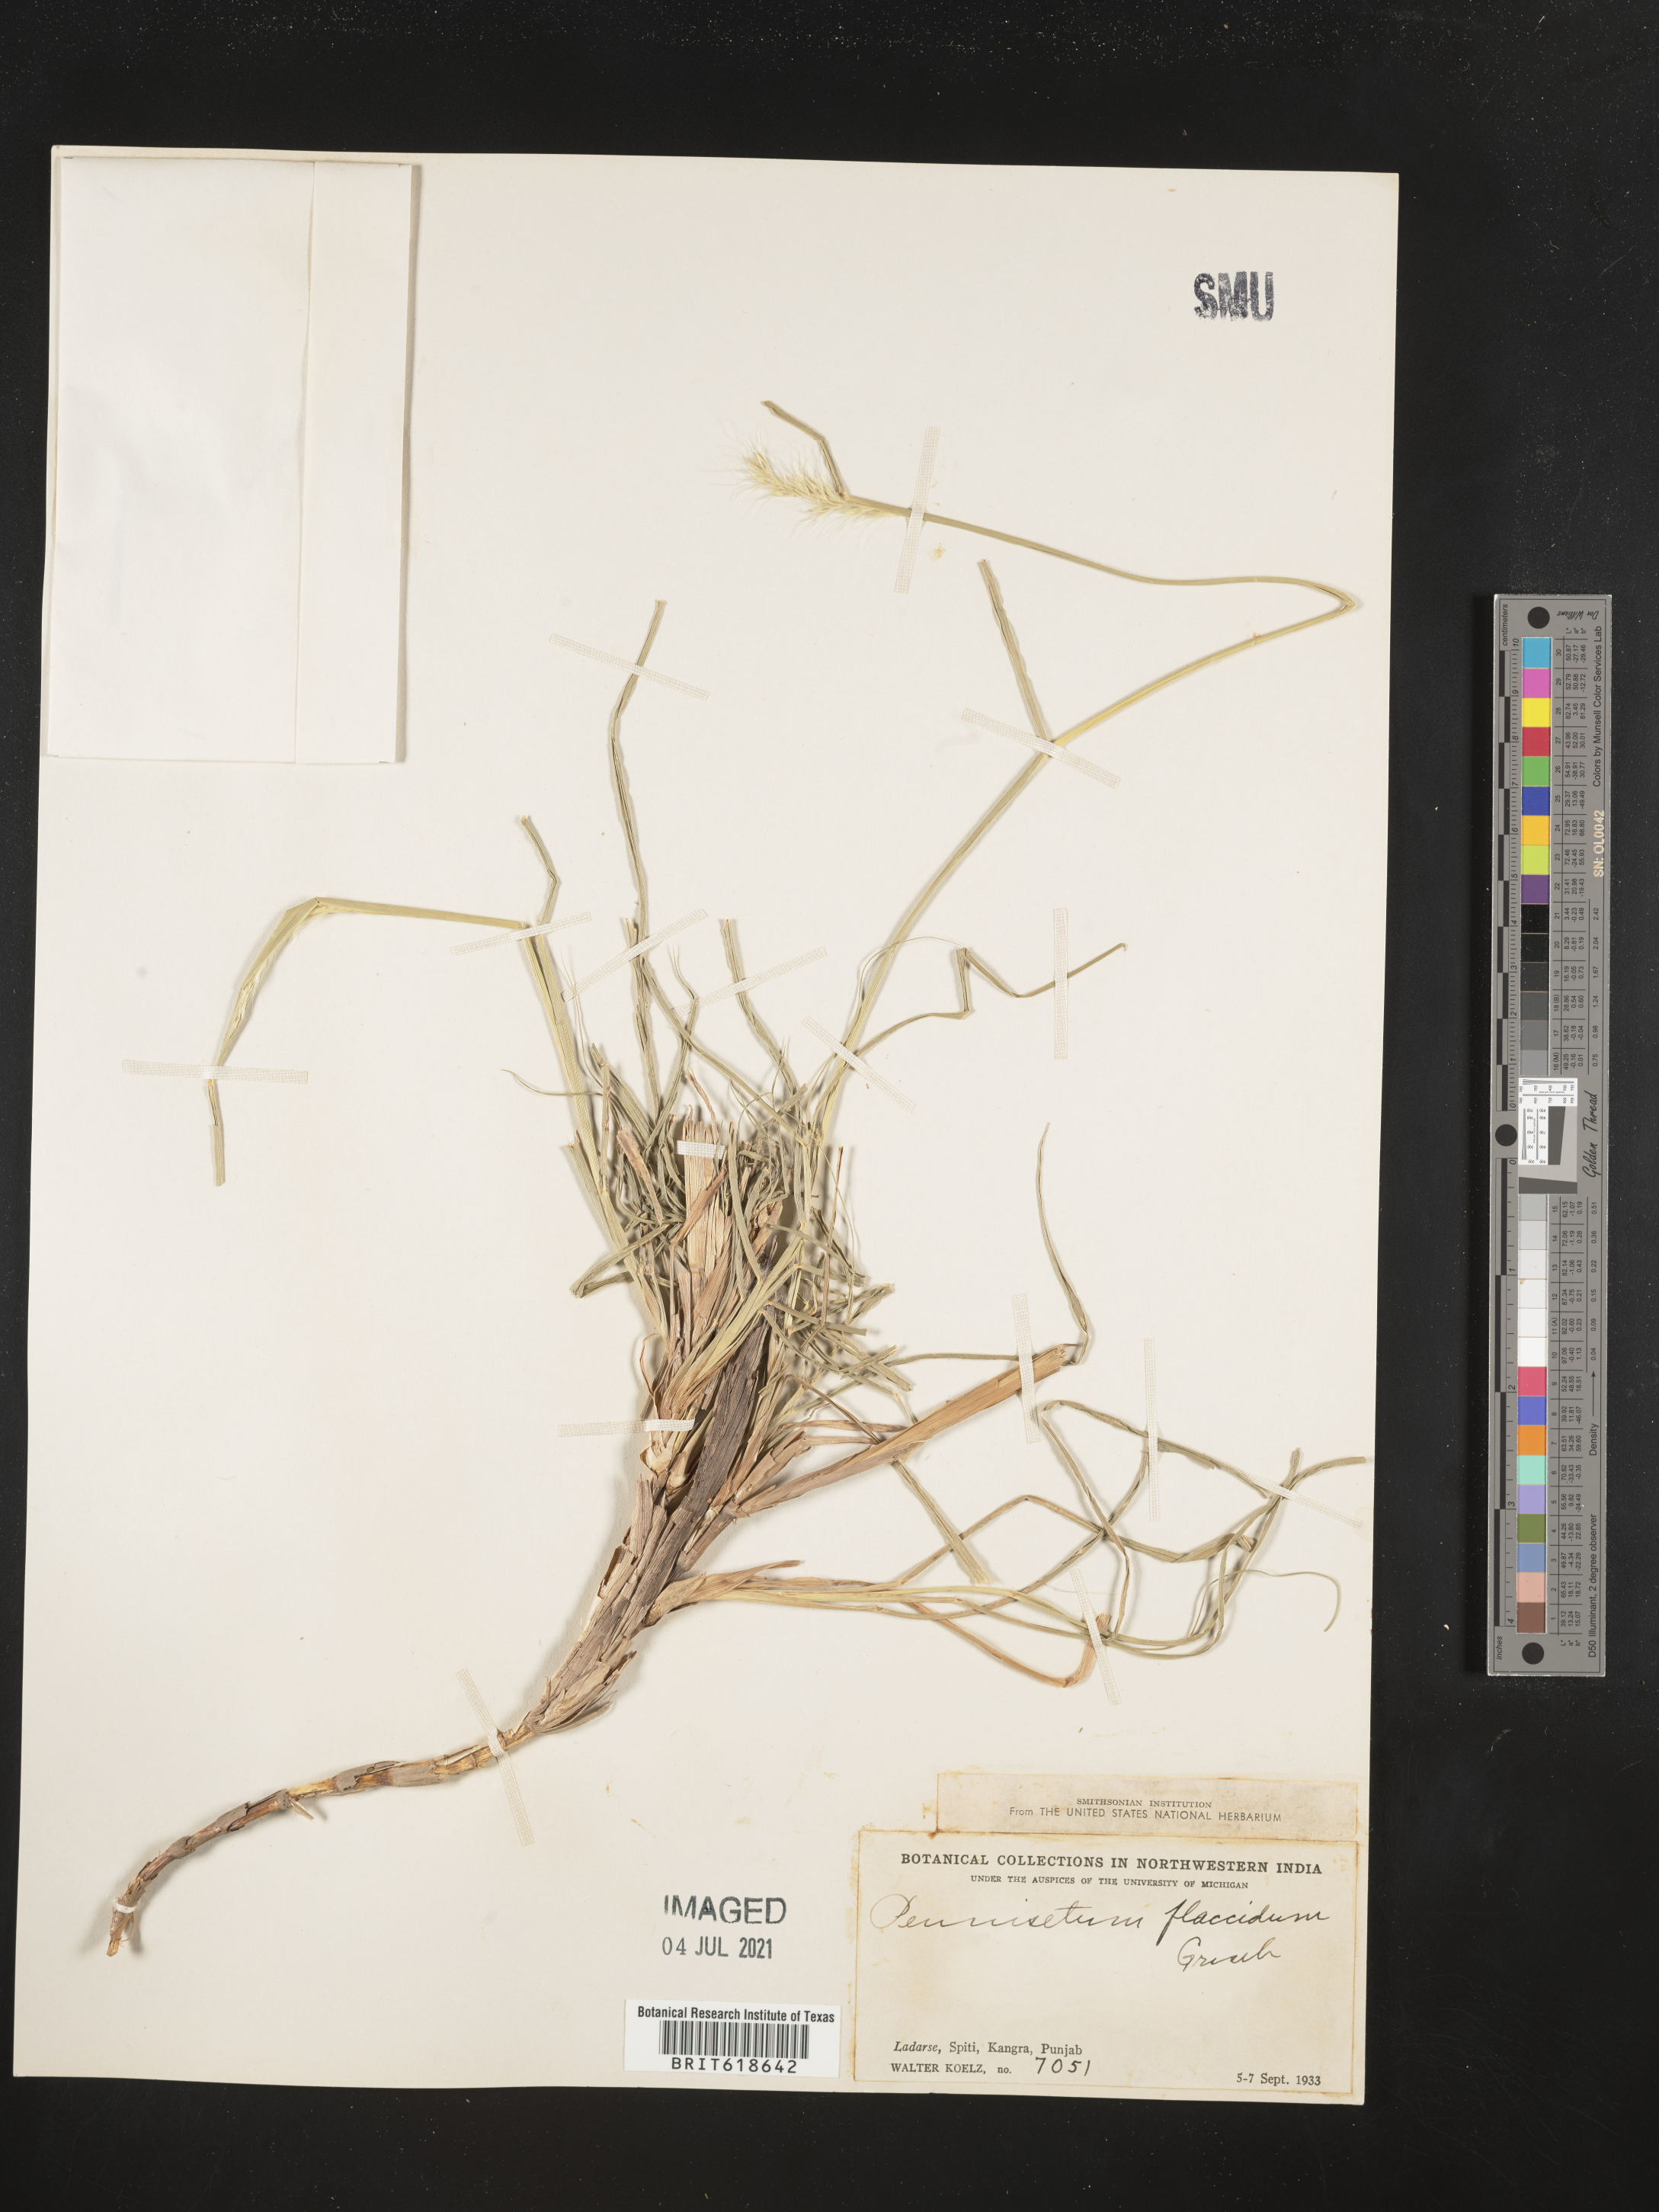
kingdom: Plantae
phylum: Tracheophyta
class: Liliopsida
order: Poales
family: Poaceae
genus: Cenchrus
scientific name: Cenchrus flaccidus
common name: Flaccid grass
